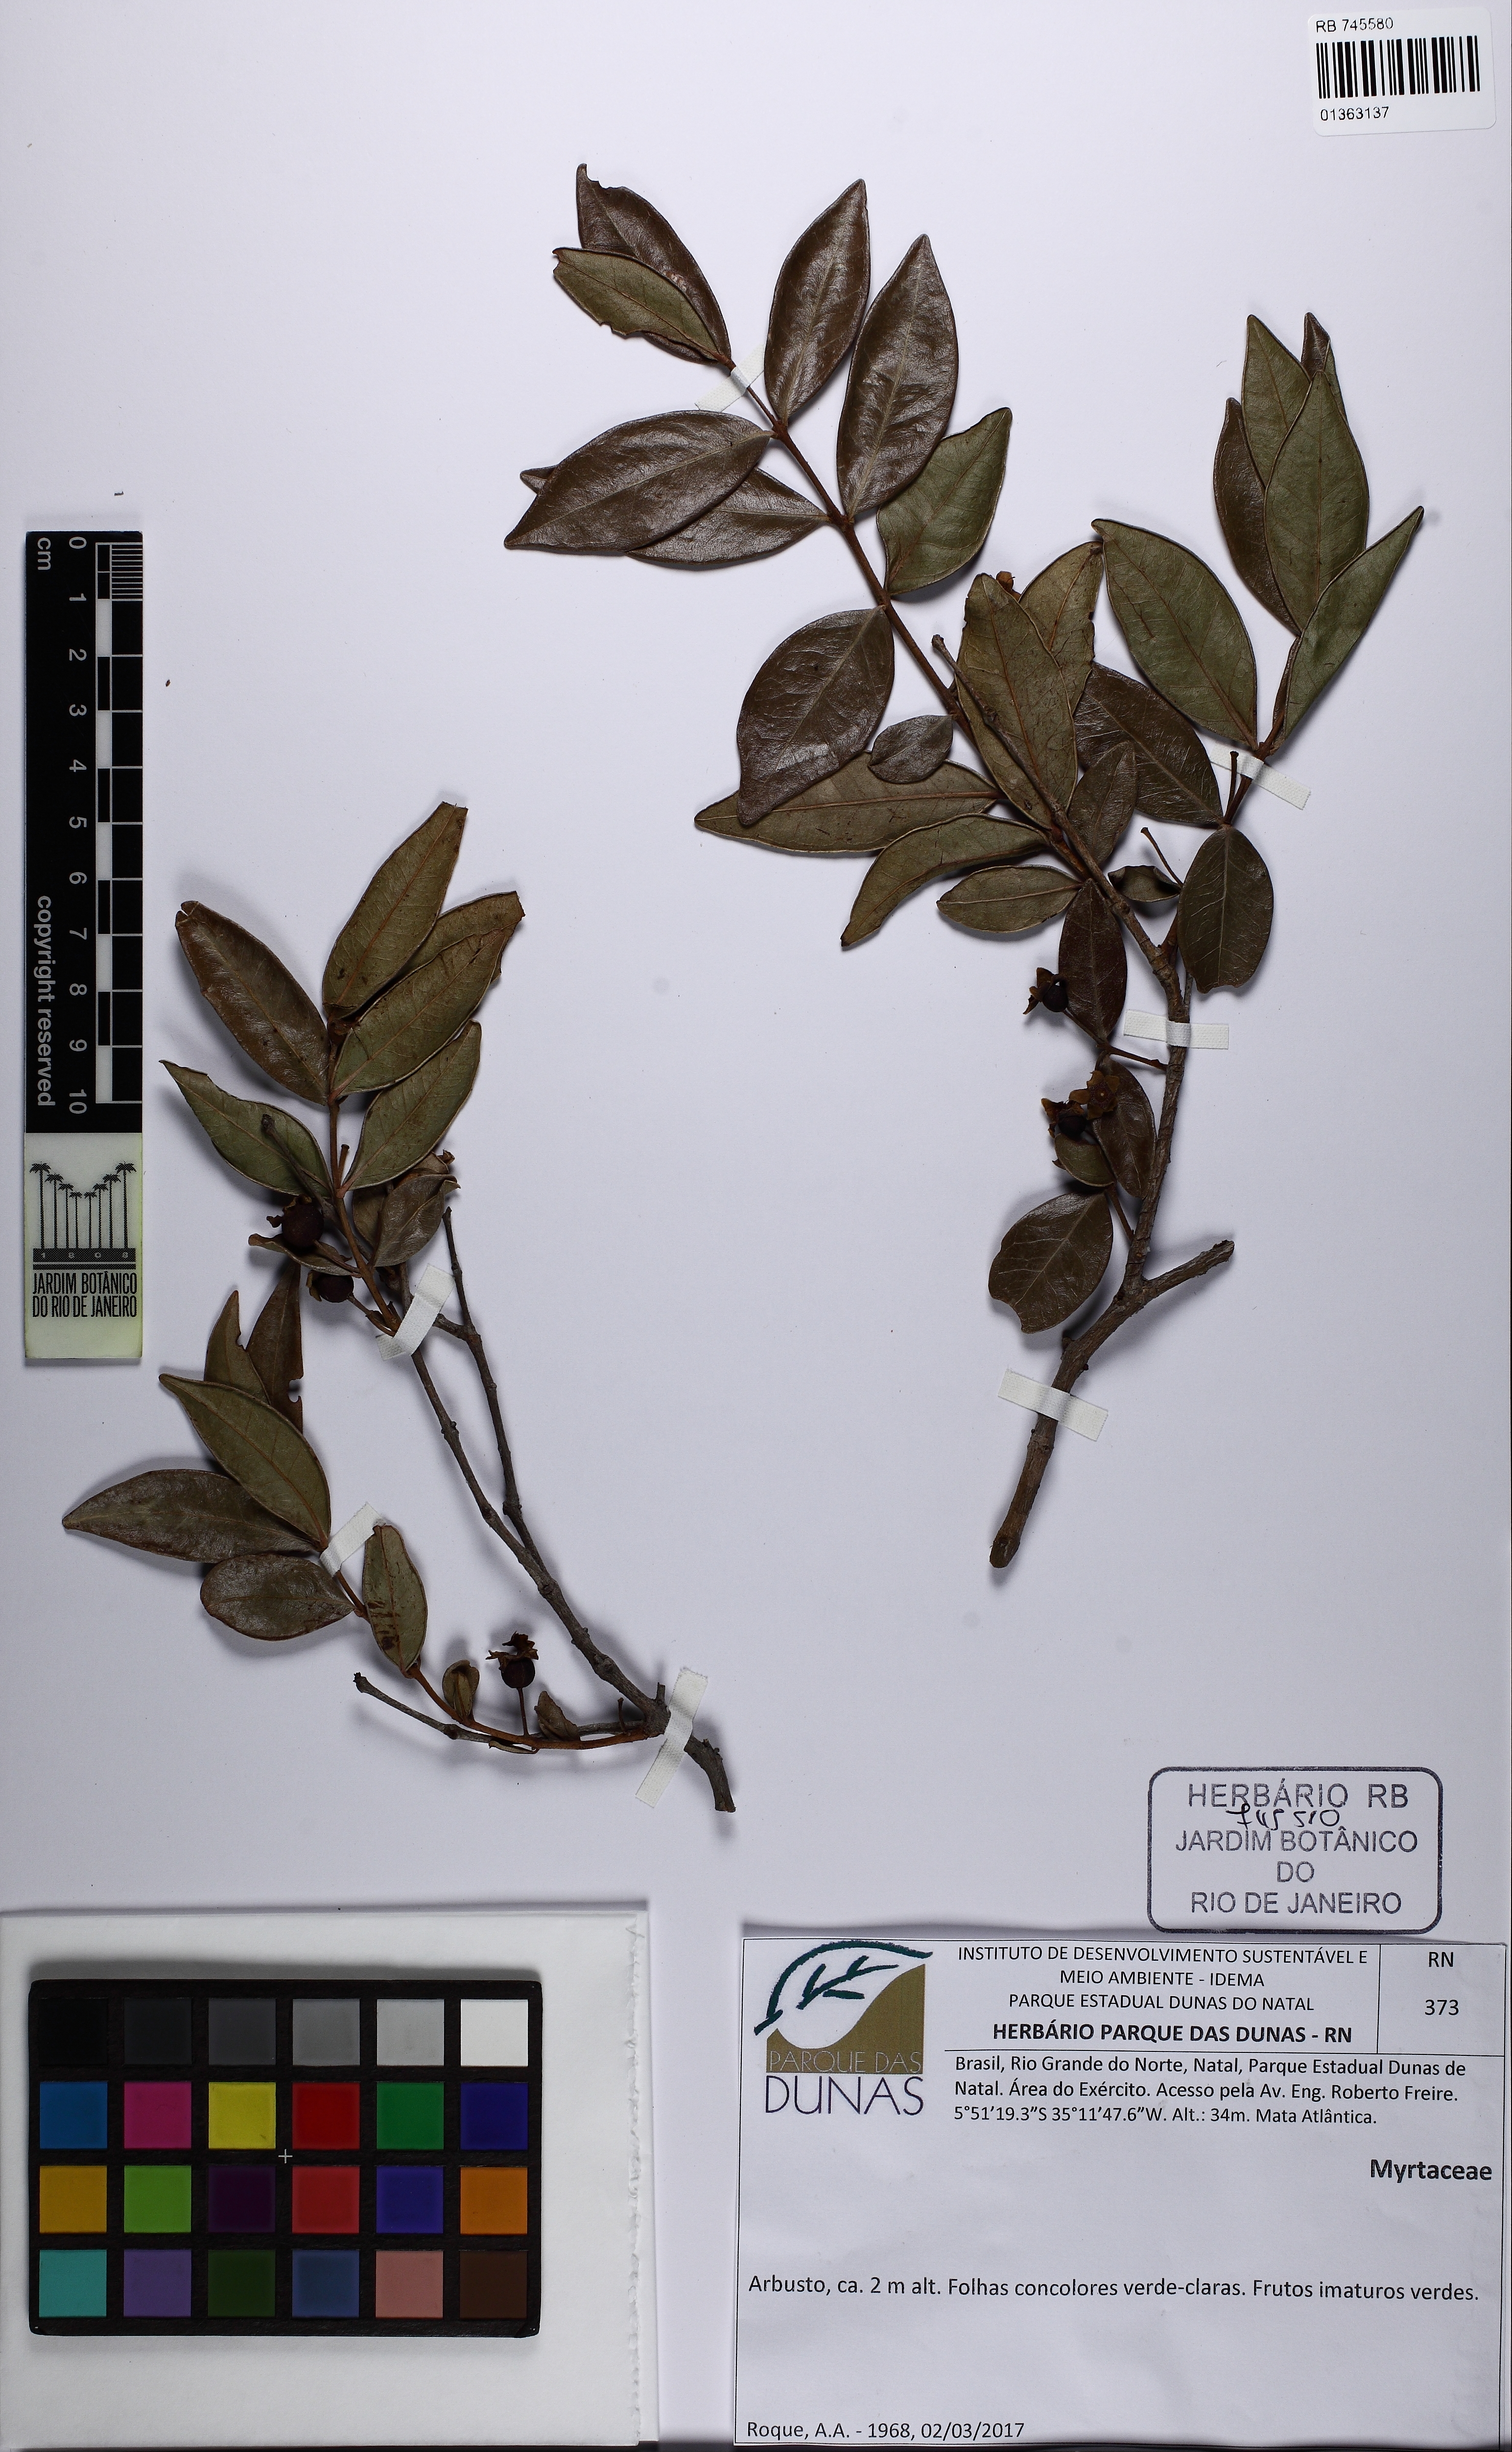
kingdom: Plantae
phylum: Tracheophyta
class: Magnoliopsida
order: Myrtales
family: Myrtaceae
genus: Campomanesia
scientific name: Campomanesia
